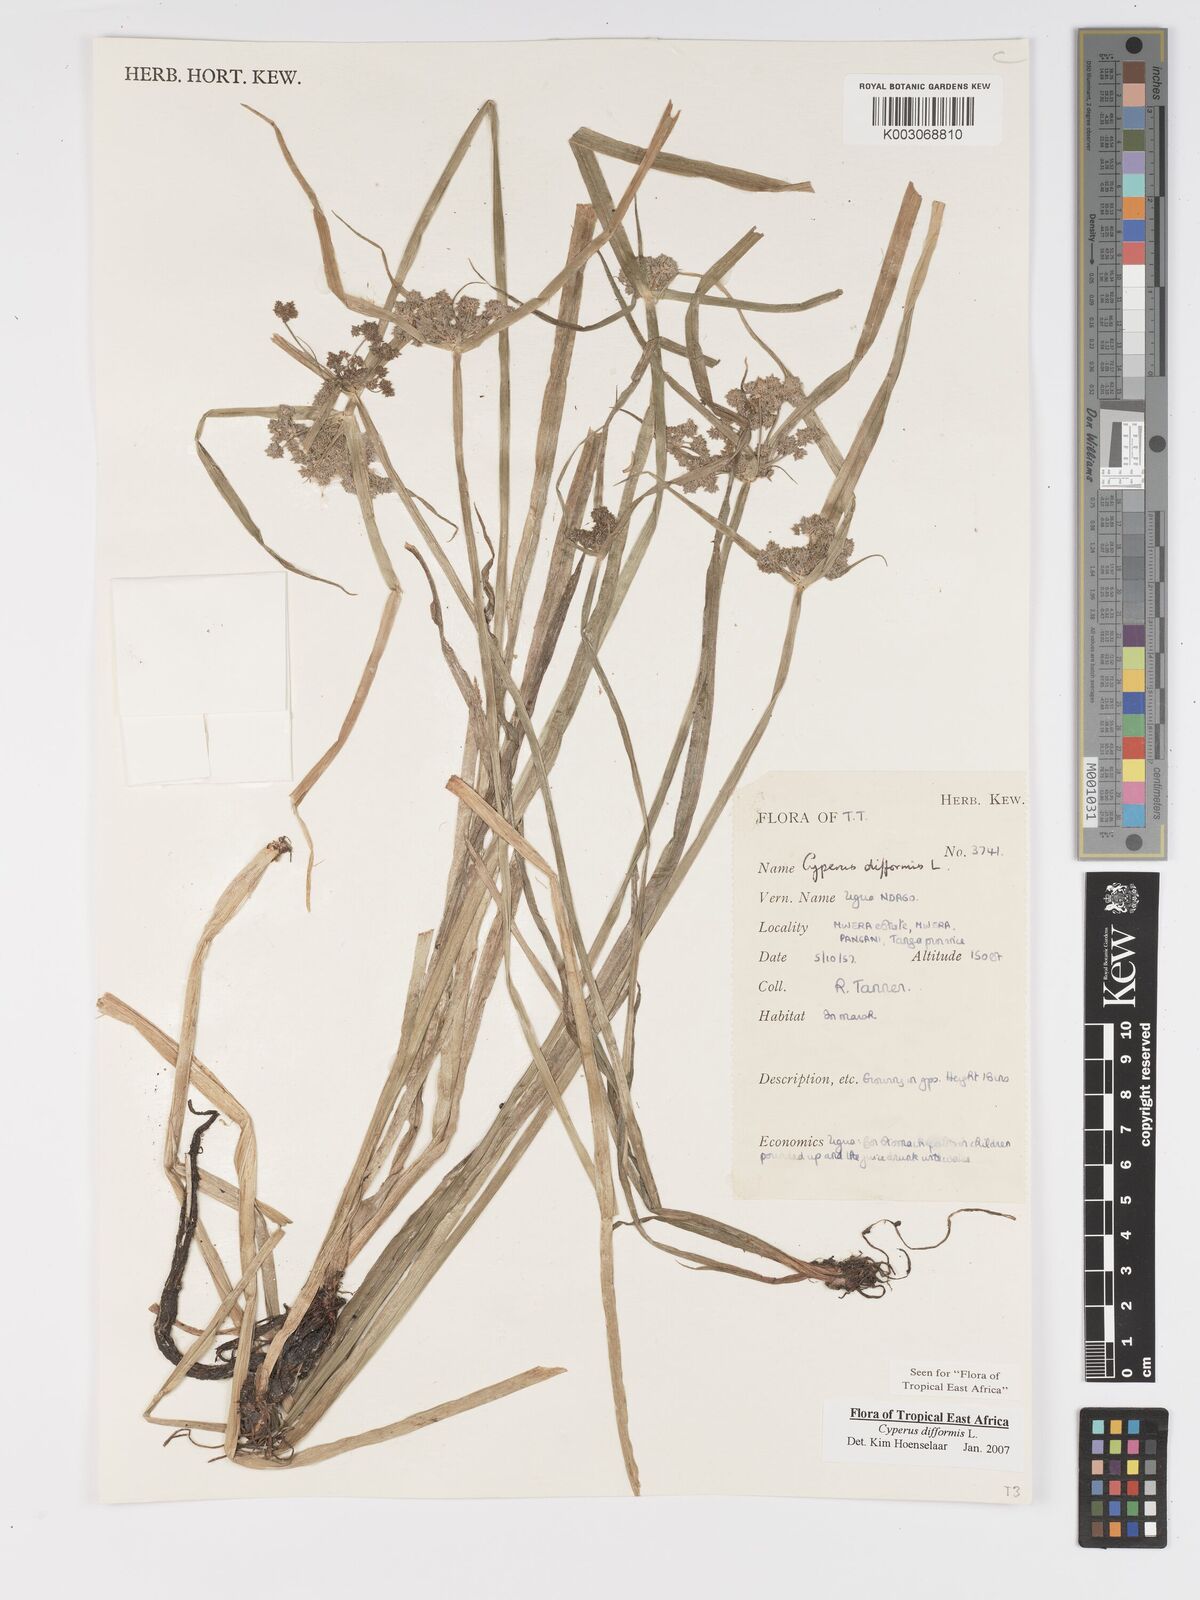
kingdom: Plantae
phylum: Tracheophyta
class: Liliopsida
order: Poales
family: Cyperaceae
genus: Cyperus
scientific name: Cyperus difformis
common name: Variable flatsedge
